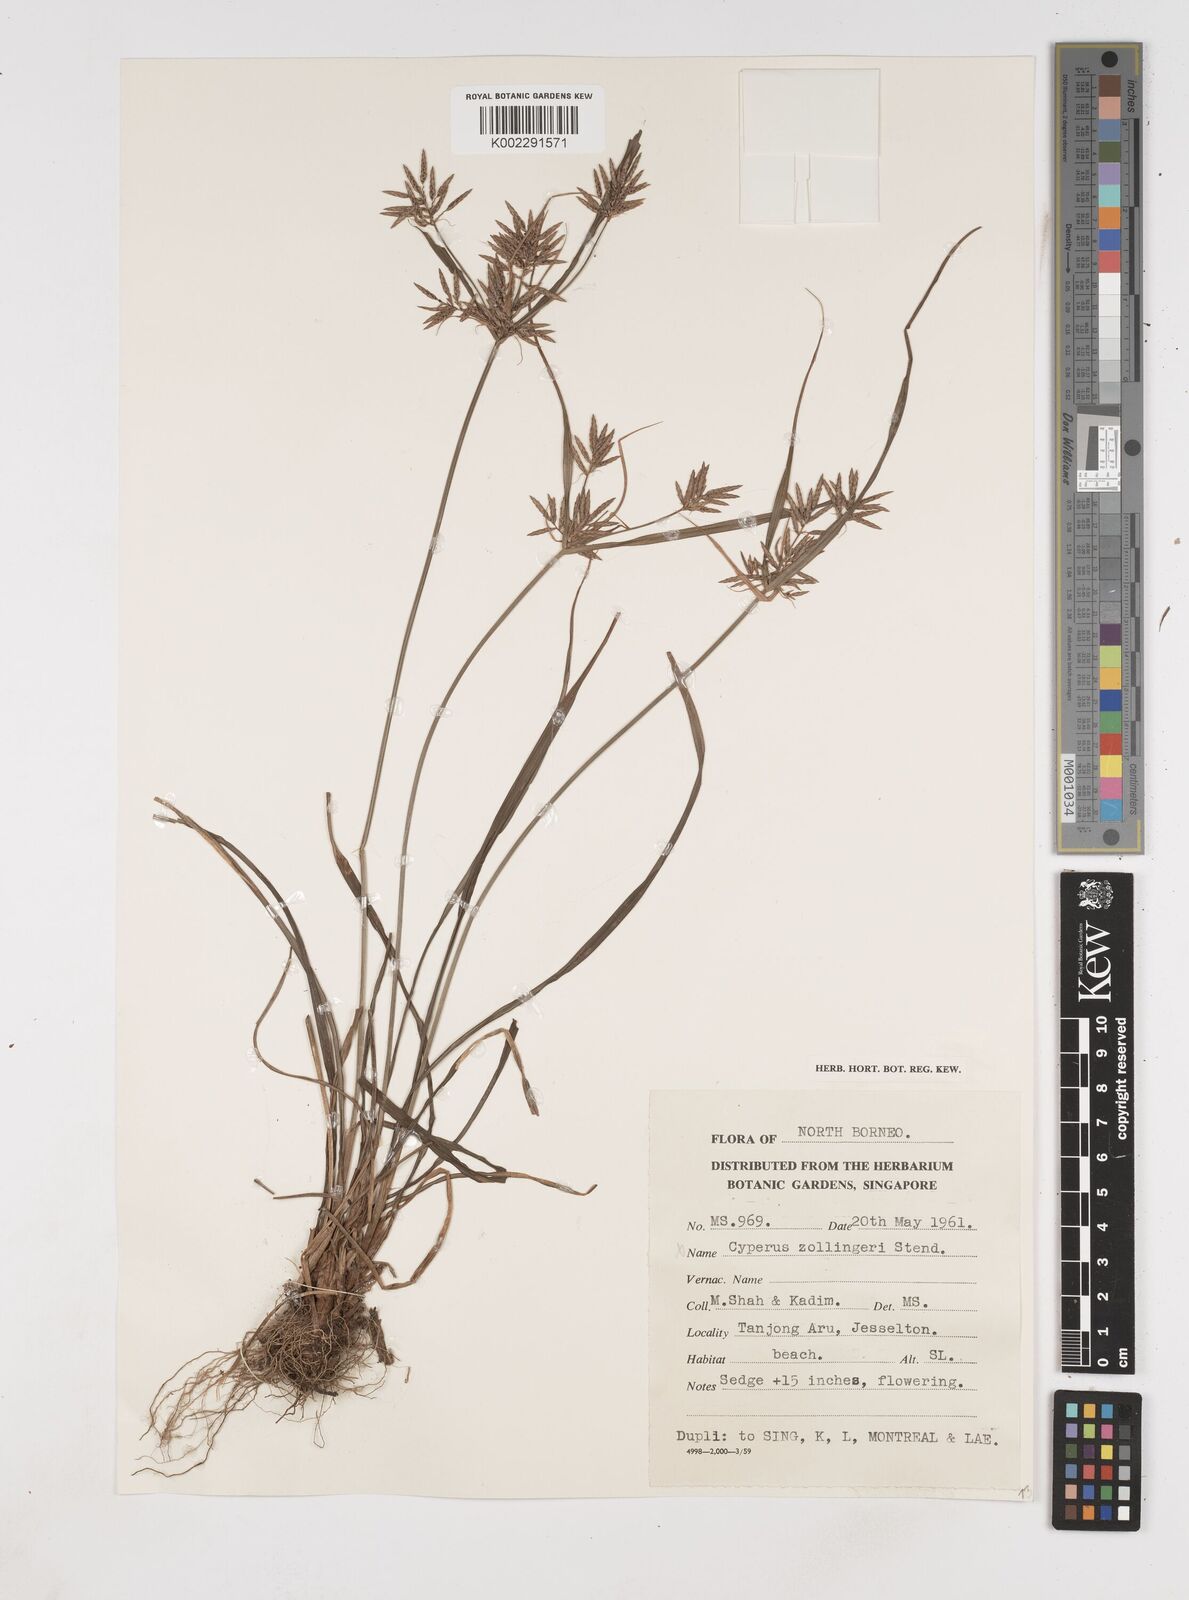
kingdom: Plantae
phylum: Tracheophyta
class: Liliopsida
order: Poales
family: Cyperaceae
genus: Cyperus
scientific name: Cyperus sphacelatus
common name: Roadside flatsedge
